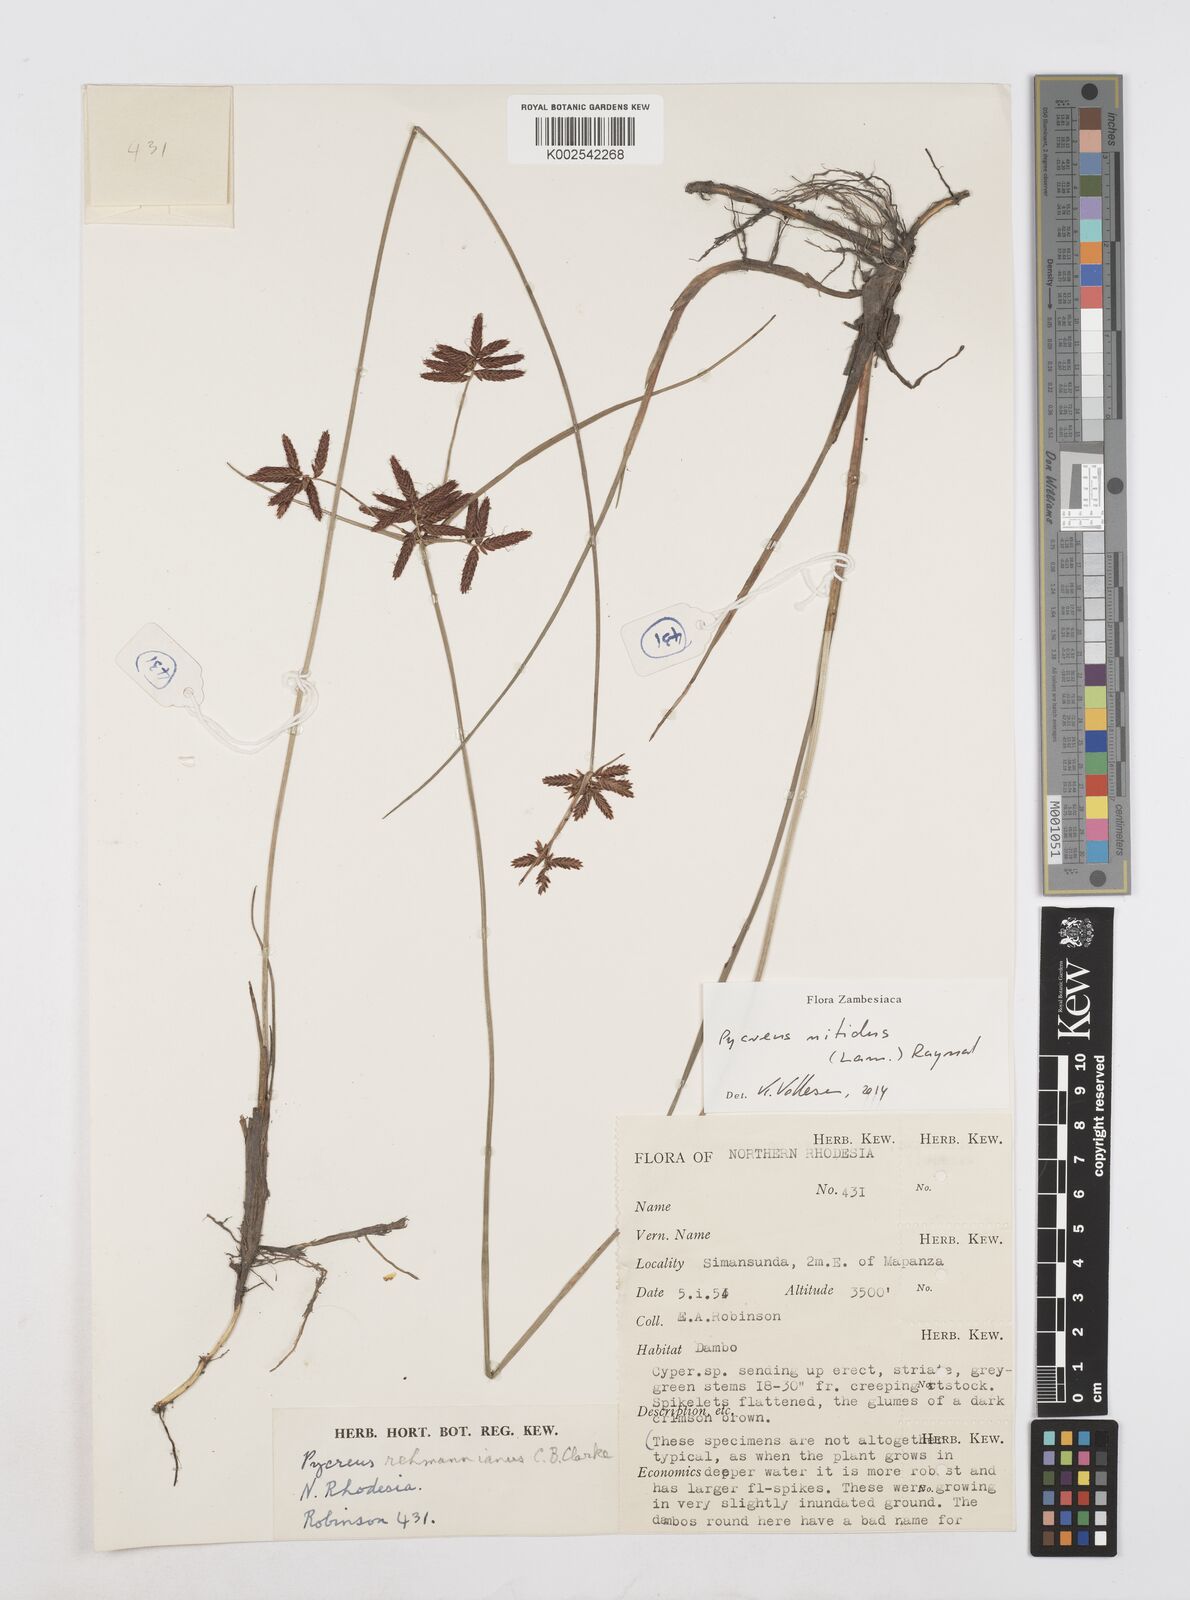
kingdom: Plantae
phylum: Tracheophyta
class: Liliopsida
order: Poales
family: Cyperaceae
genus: Cyperus
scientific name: Cyperus nitidus
